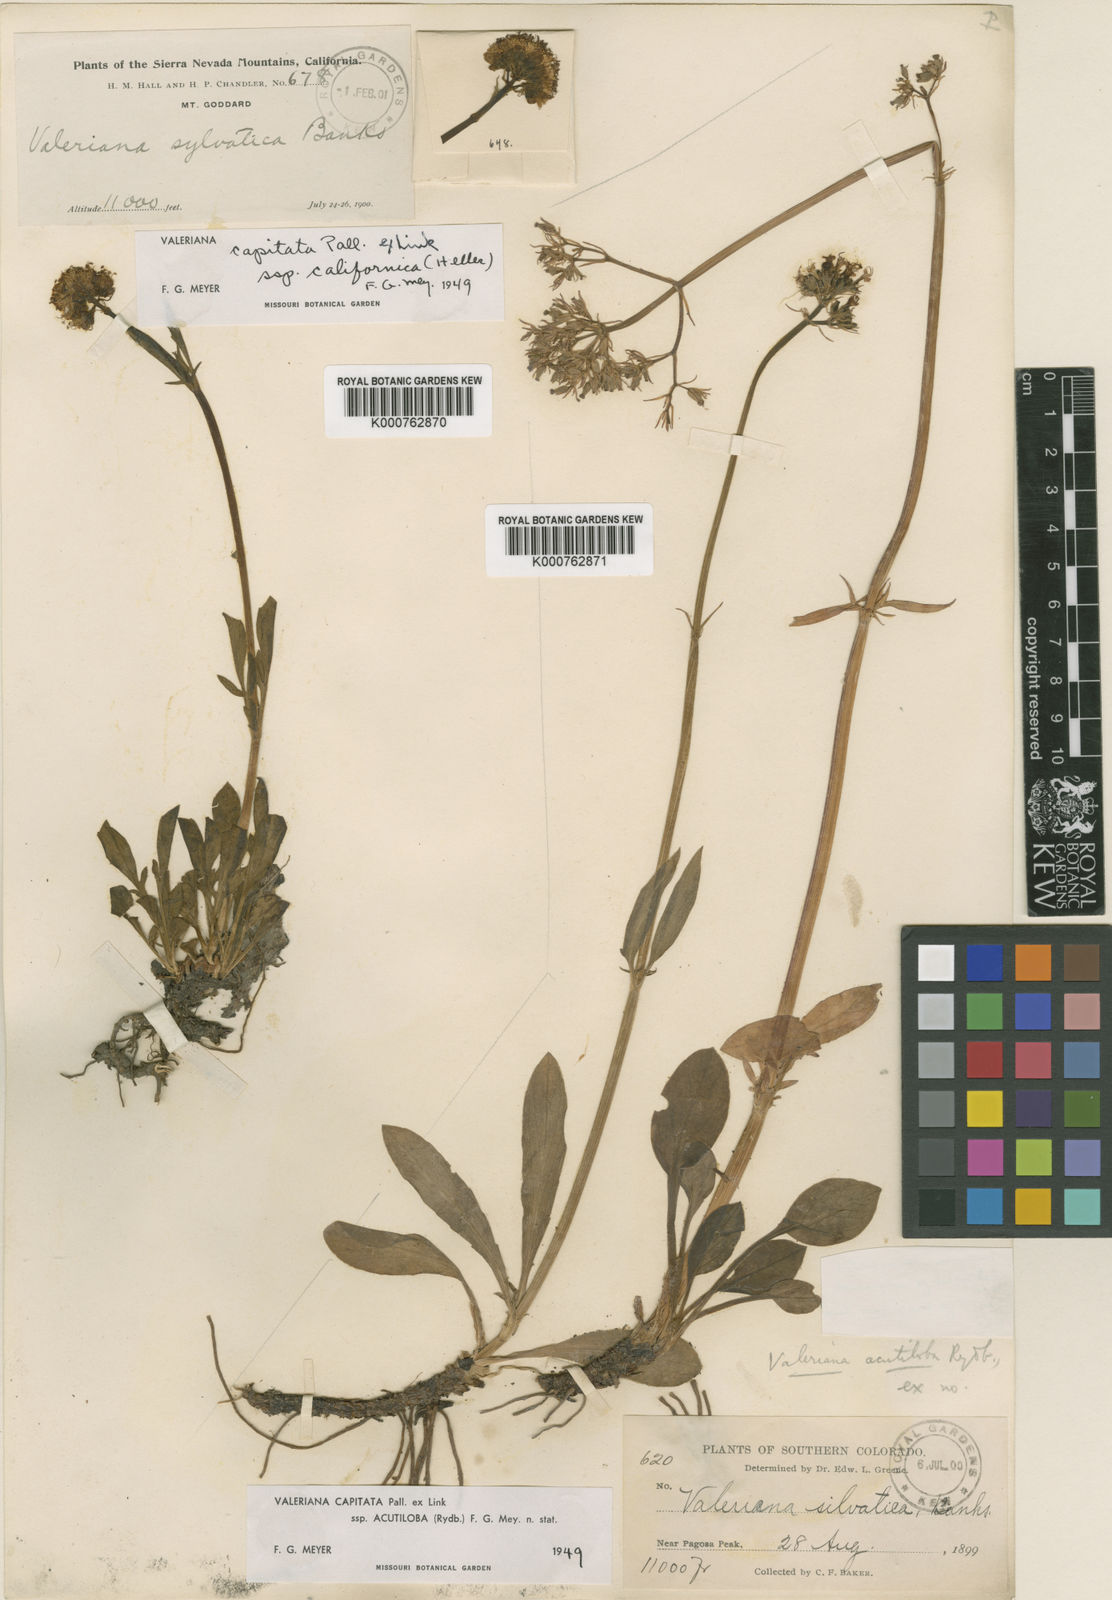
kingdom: Plantae
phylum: Tracheophyta
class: Magnoliopsida
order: Dipsacales
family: Caprifoliaceae
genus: Valeriana
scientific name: Valeriana acutiloba
